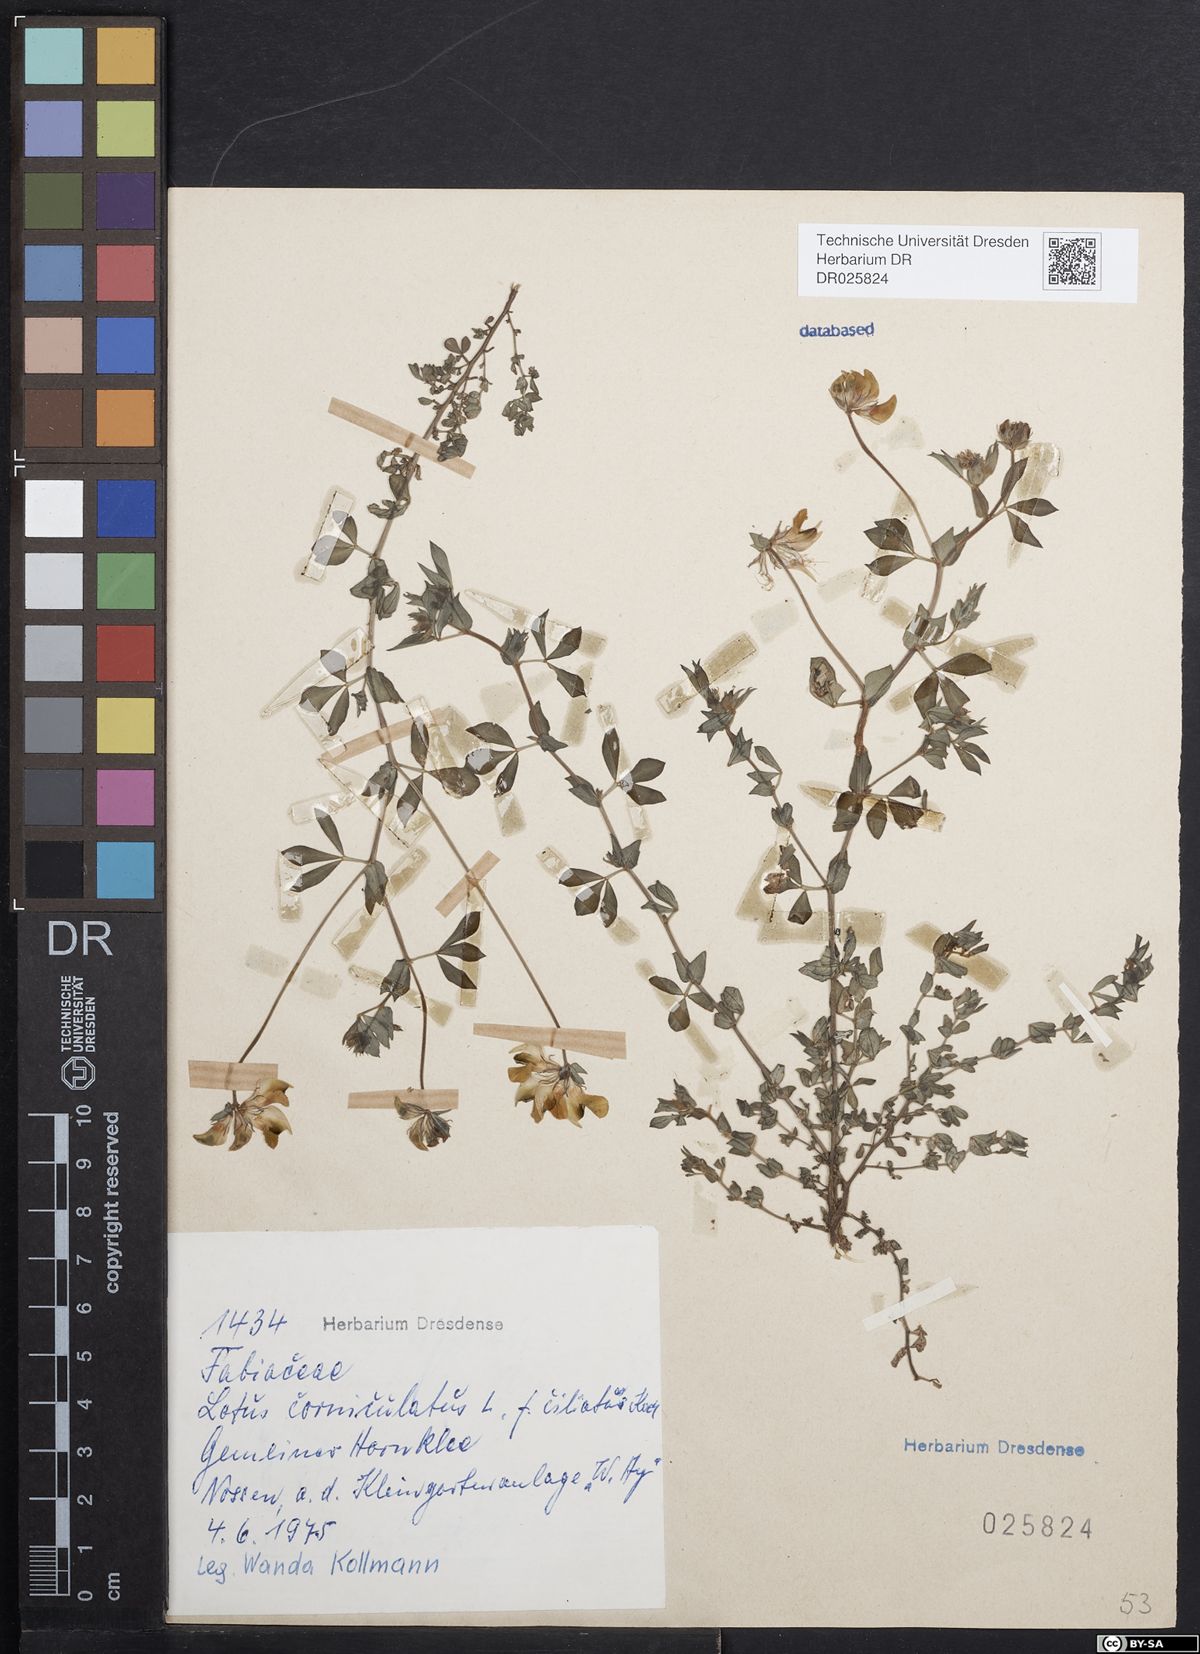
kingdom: Plantae
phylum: Tracheophyta
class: Magnoliopsida
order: Fabales
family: Fabaceae
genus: Lotus
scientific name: Lotus corniculatus
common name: Common bird's-foot-trefoil
